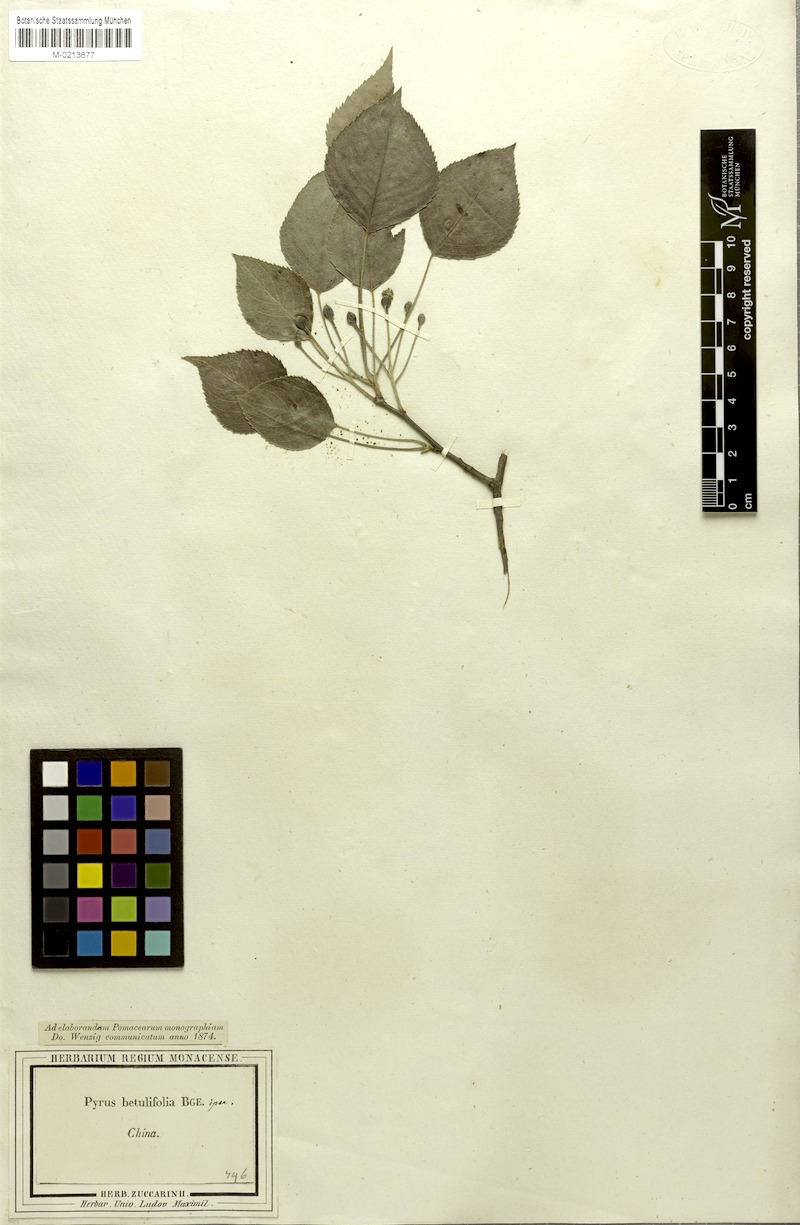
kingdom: Plantae
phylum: Tracheophyta
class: Magnoliopsida
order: Rosales
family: Rosaceae
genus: Pyrus
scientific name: Pyrus betulifolia
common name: Birch-leaf pear
